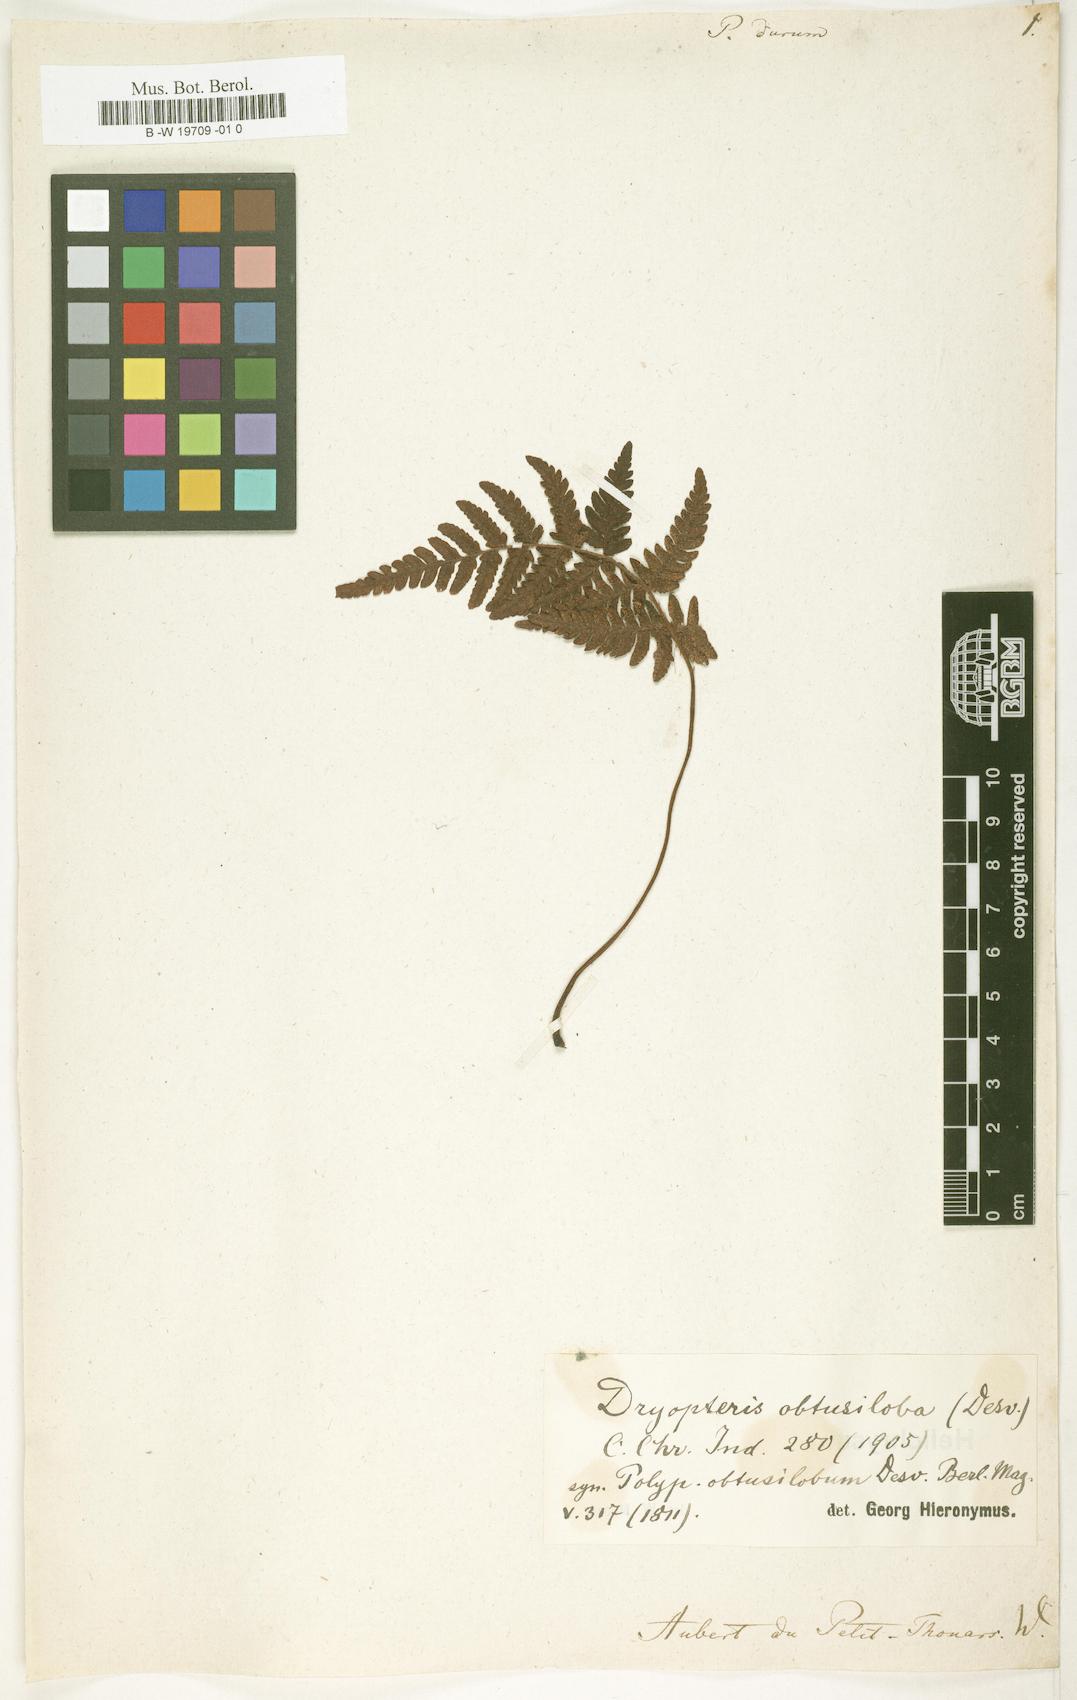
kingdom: Plantae
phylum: Tracheophyta
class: Polypodiopsida
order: Polypodiales
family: Polypodiaceae
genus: Oreogrammitis
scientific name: Oreogrammitis padangensis
